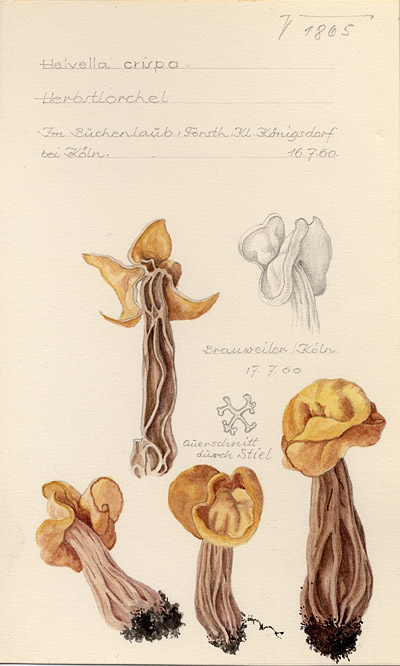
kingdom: Fungi
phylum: Ascomycota
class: Pezizomycetes
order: Pezizales
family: Helvellaceae
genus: Helvella
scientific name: Helvella crispa
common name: White saddle
